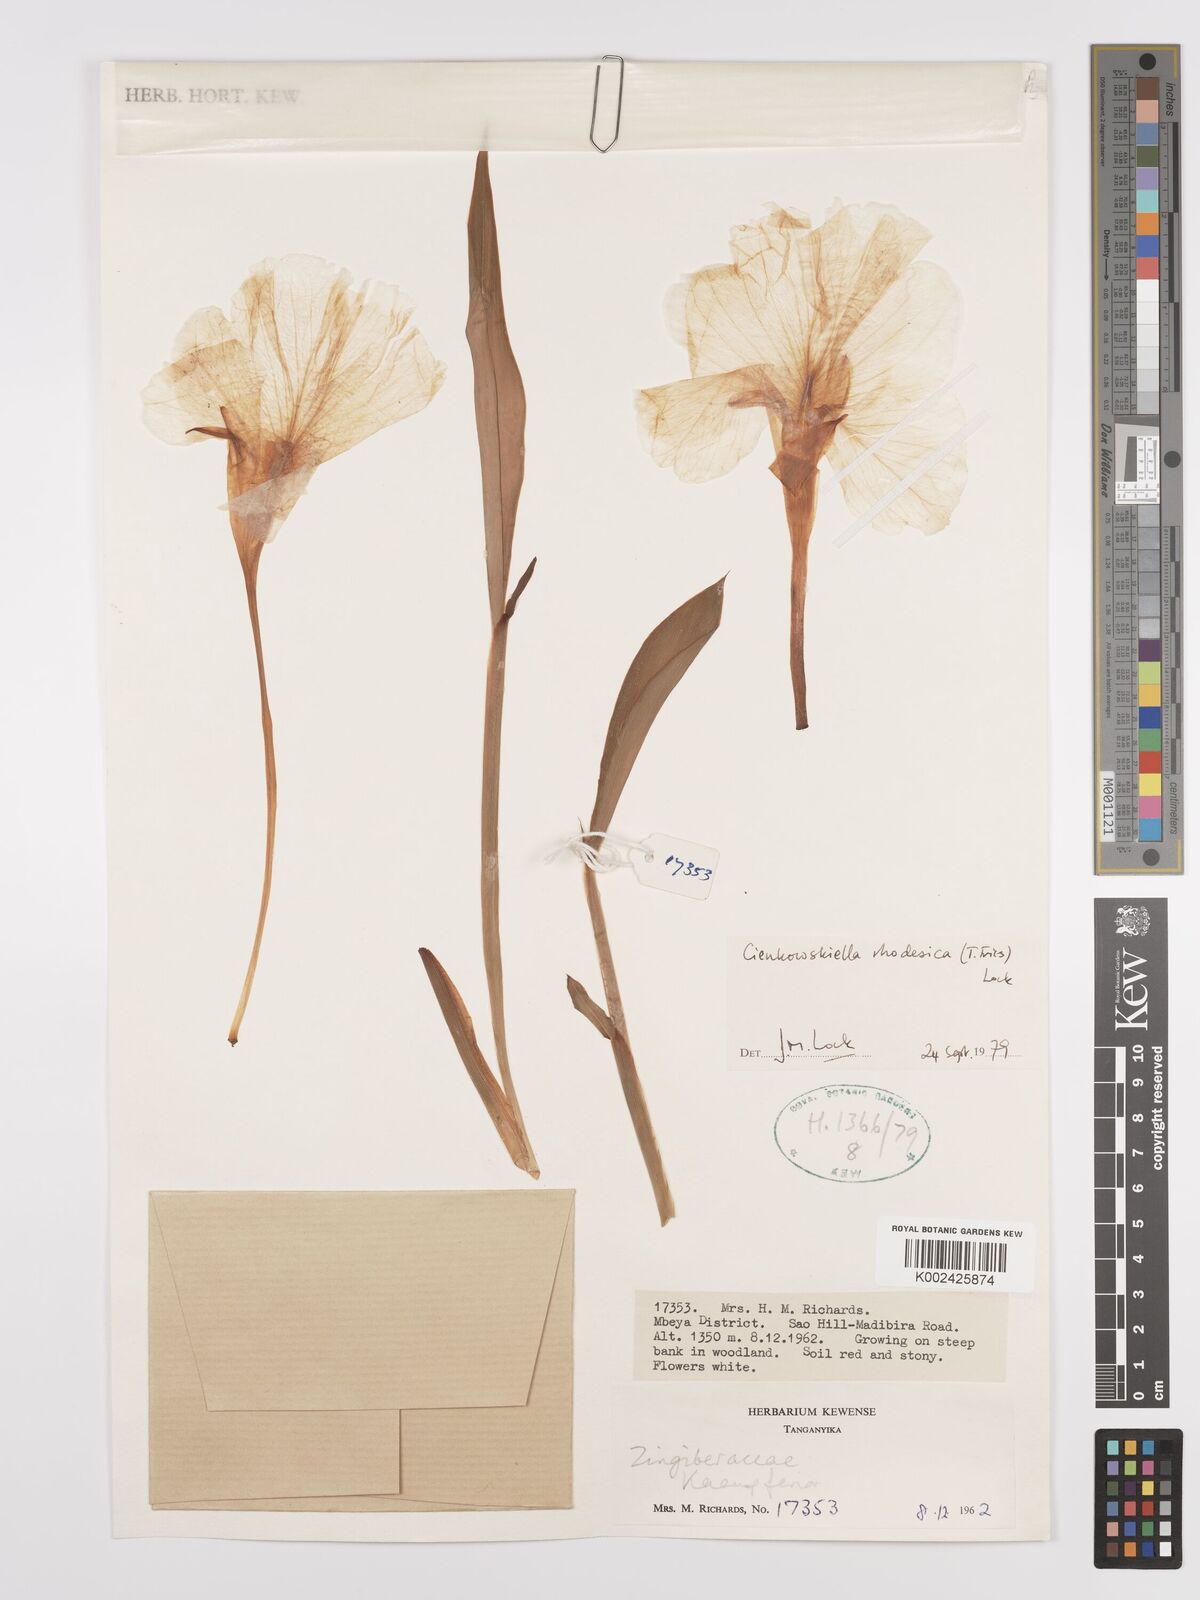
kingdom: Plantae
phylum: Tracheophyta
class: Liliopsida
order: Zingiberales
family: Zingiberaceae
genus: Siphonochilus
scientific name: Siphonochilus rhodesicus
